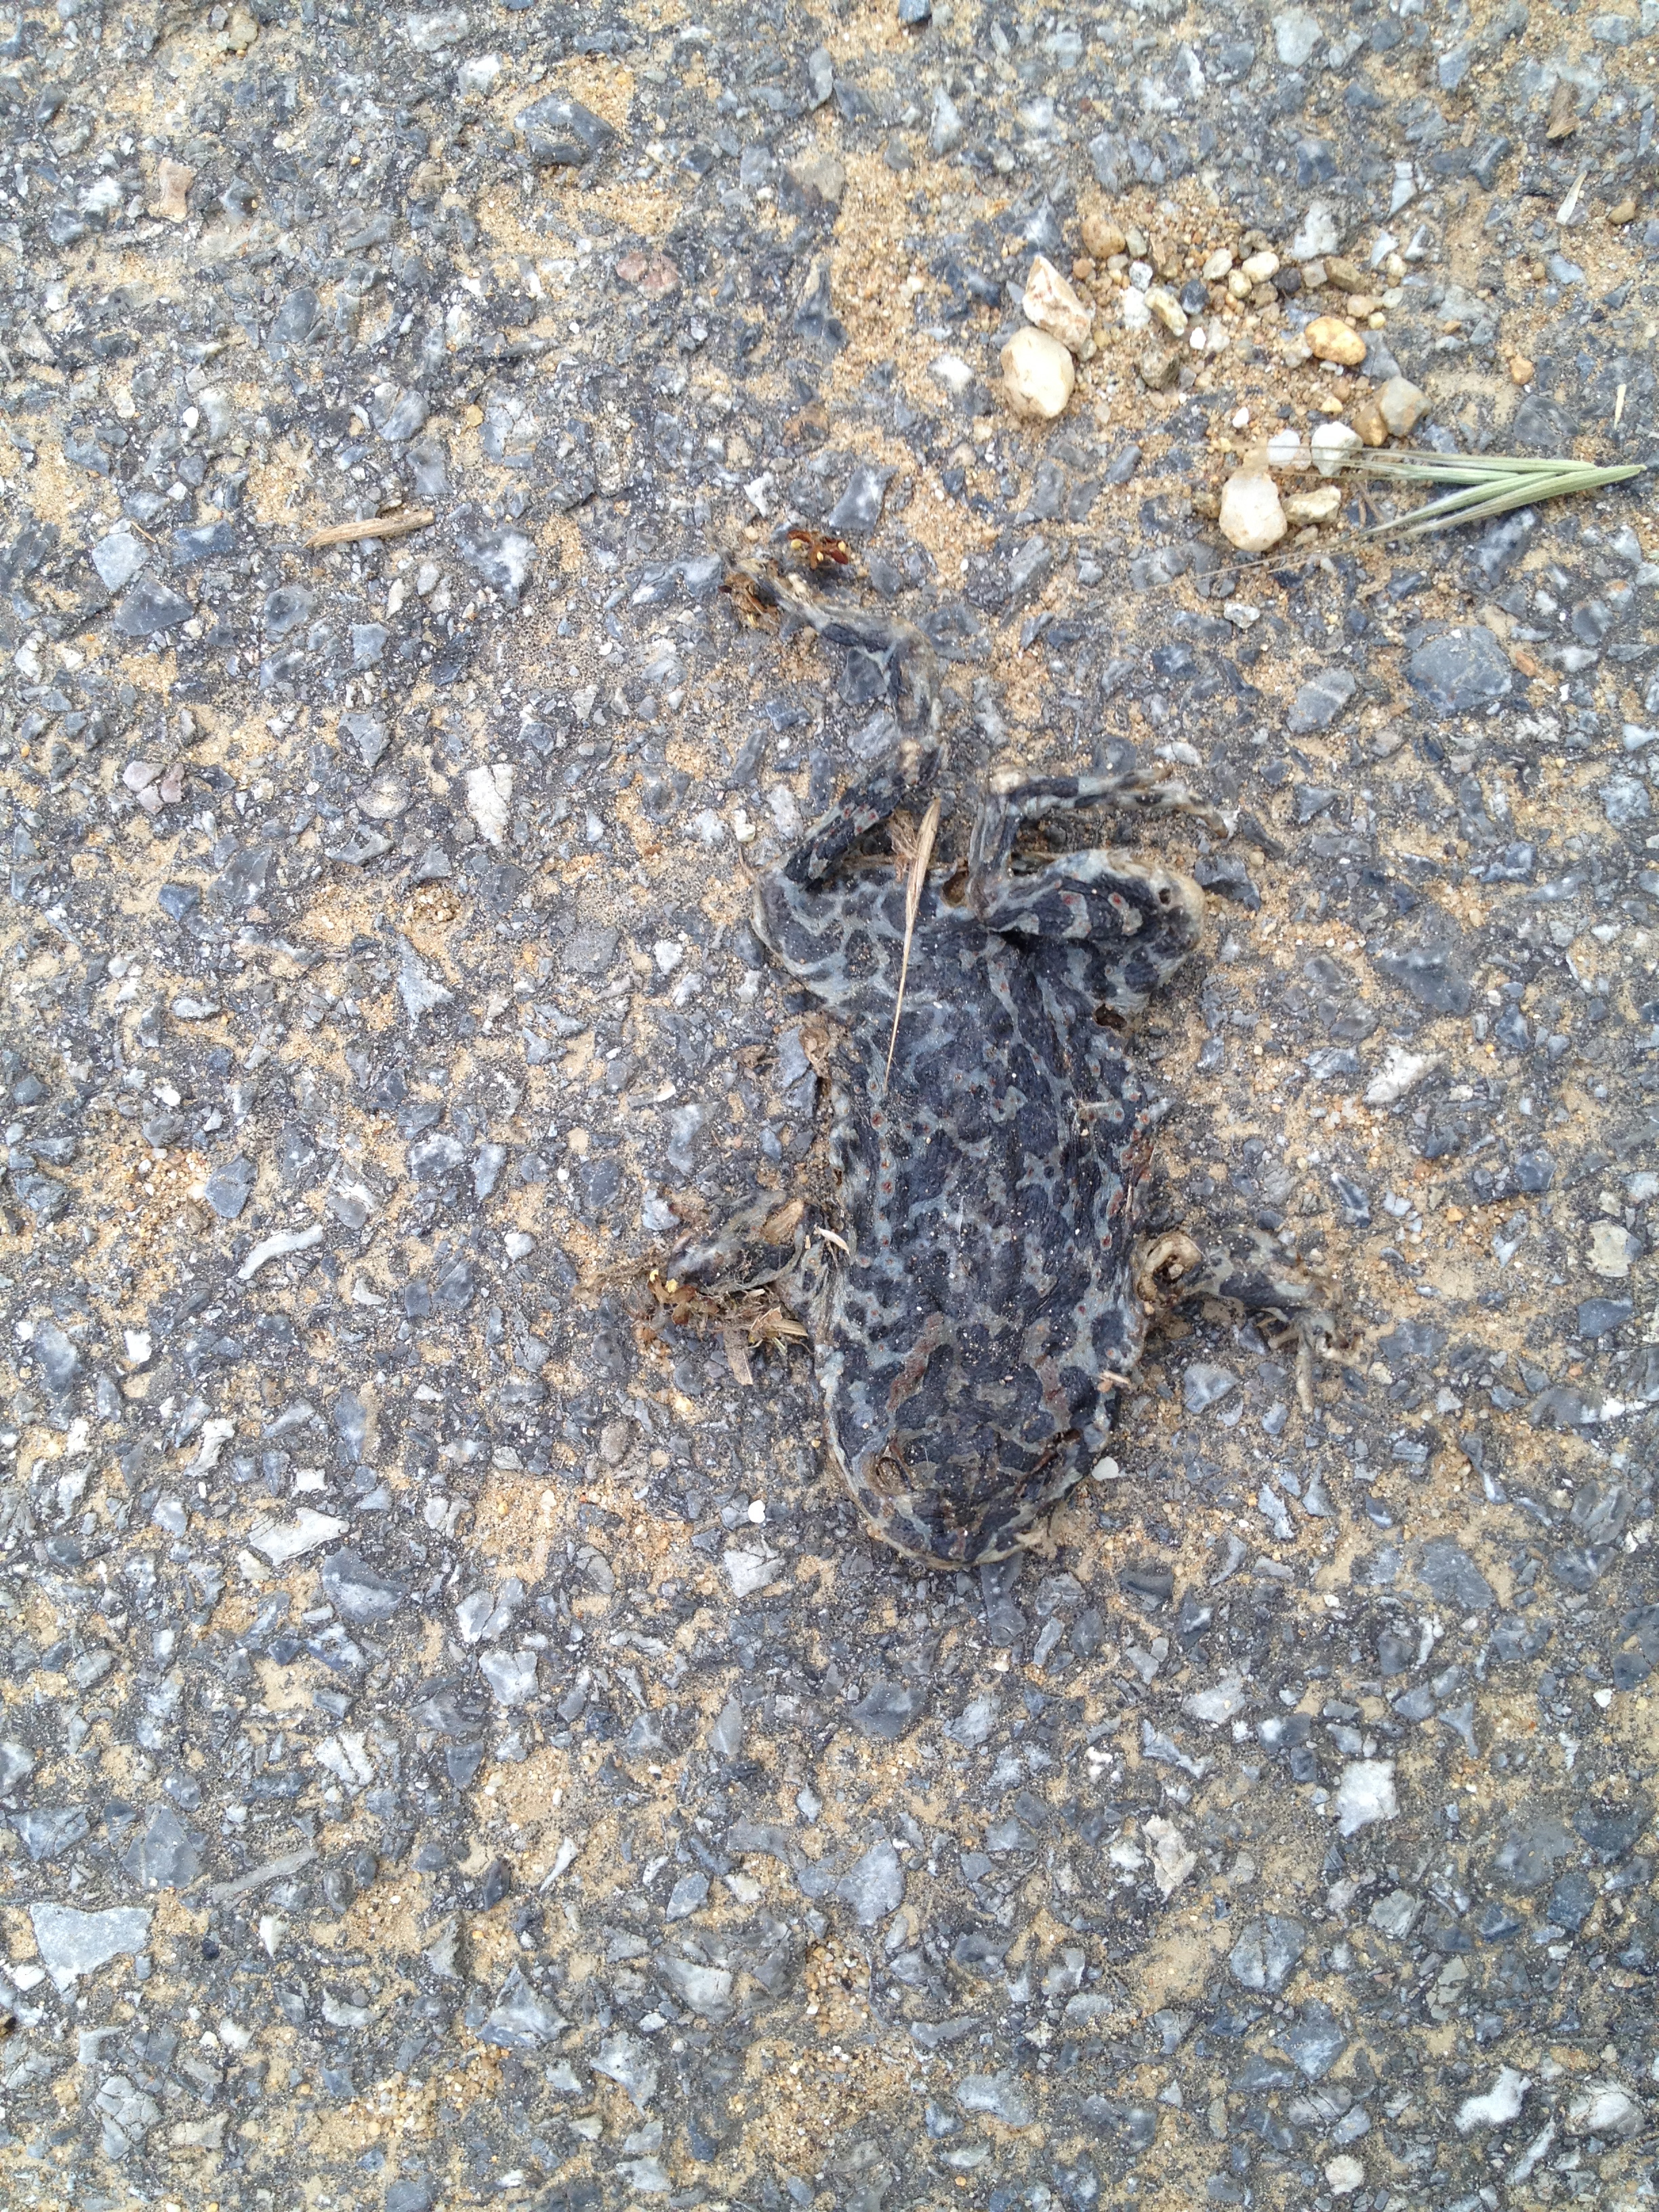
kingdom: Animalia
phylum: Chordata
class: Amphibia
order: Anura
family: Bufonidae
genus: Bufotes
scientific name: Bufotes viridis
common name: European green toad
